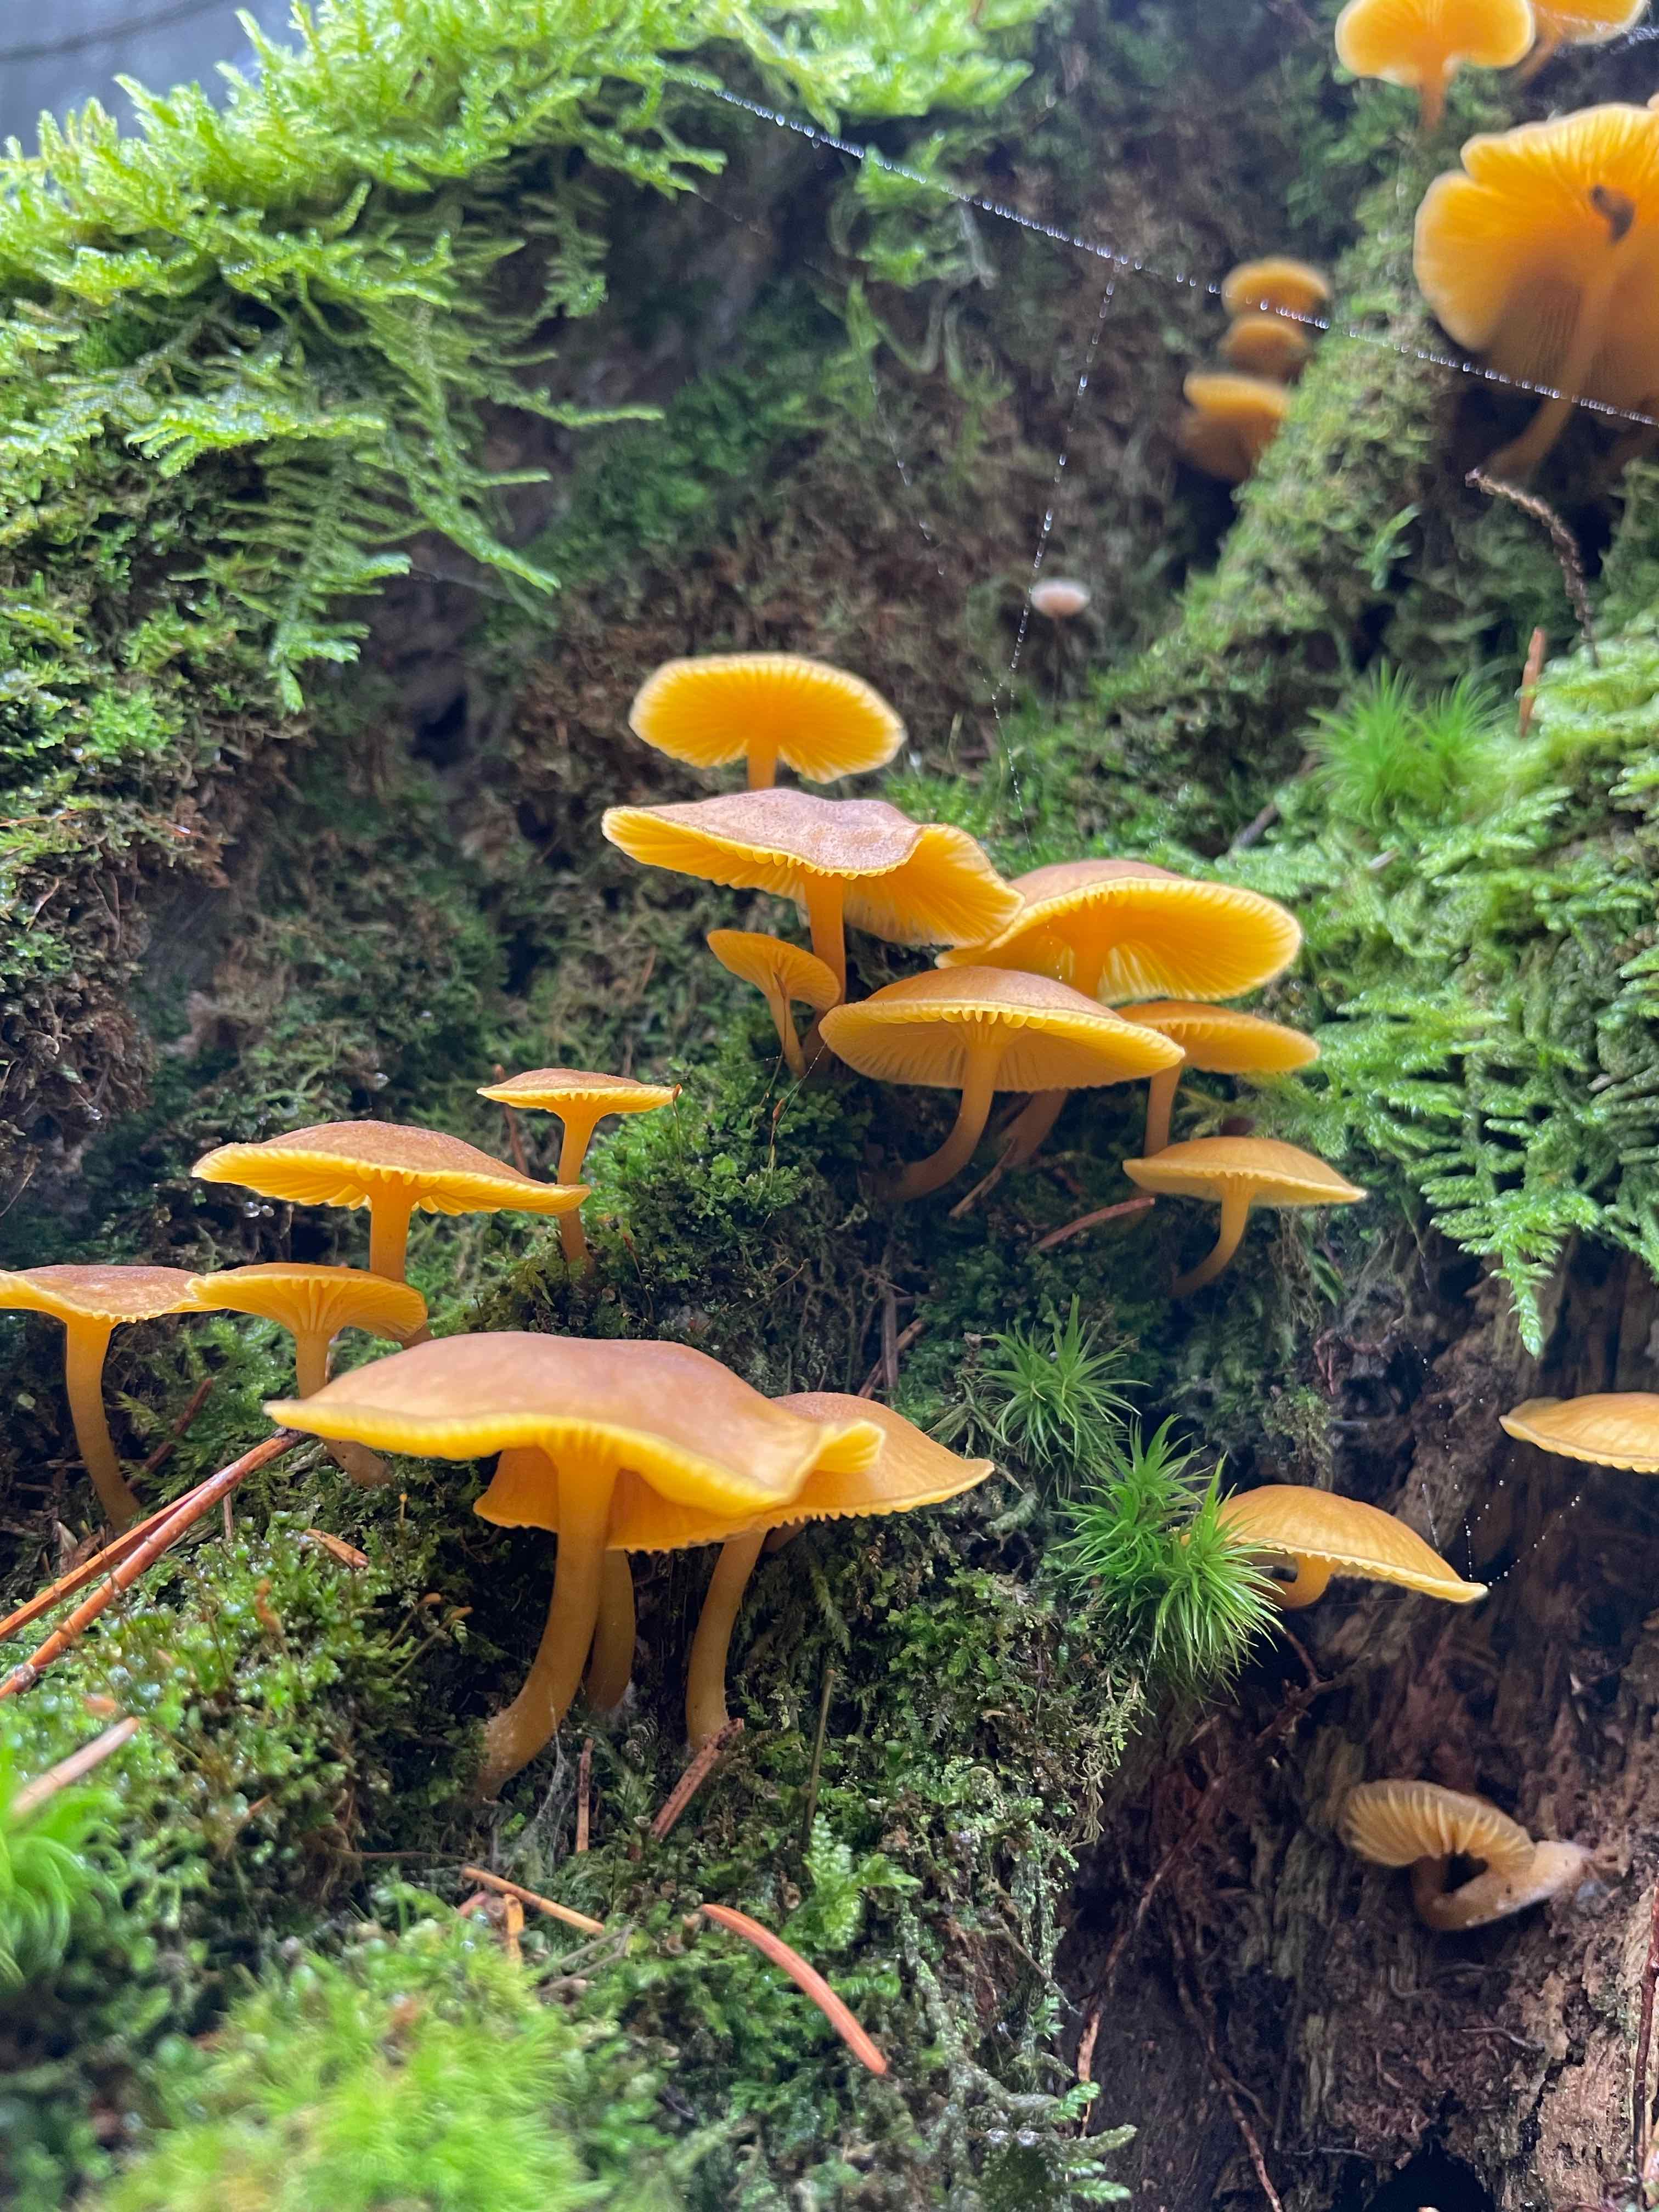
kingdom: Fungi
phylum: Basidiomycota
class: Agaricomycetes
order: Agaricales
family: Hygrophoraceae
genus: Chrysomphalina
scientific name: Chrysomphalina chrysophylla
